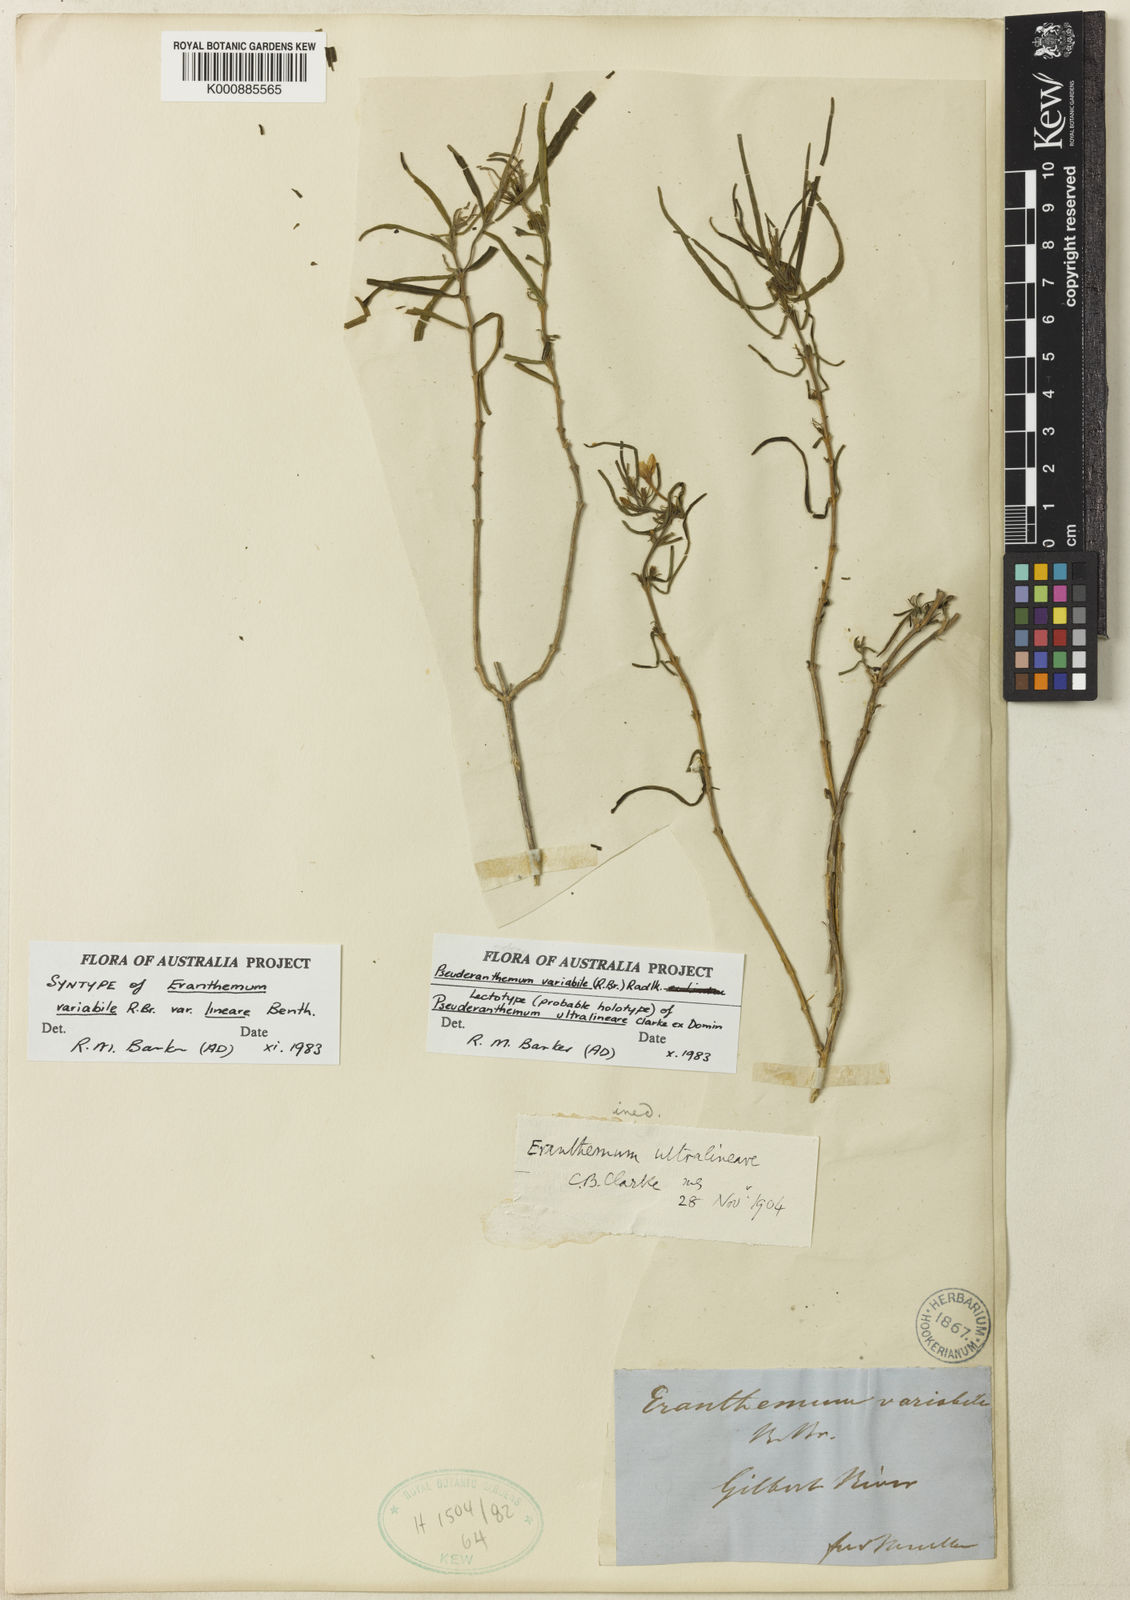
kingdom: Plantae
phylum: Tracheophyta
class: Magnoliopsida
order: Lamiales
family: Acanthaceae
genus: Pseuderanthemum
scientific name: Pseuderanthemum variabile
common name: Night and afternoon
